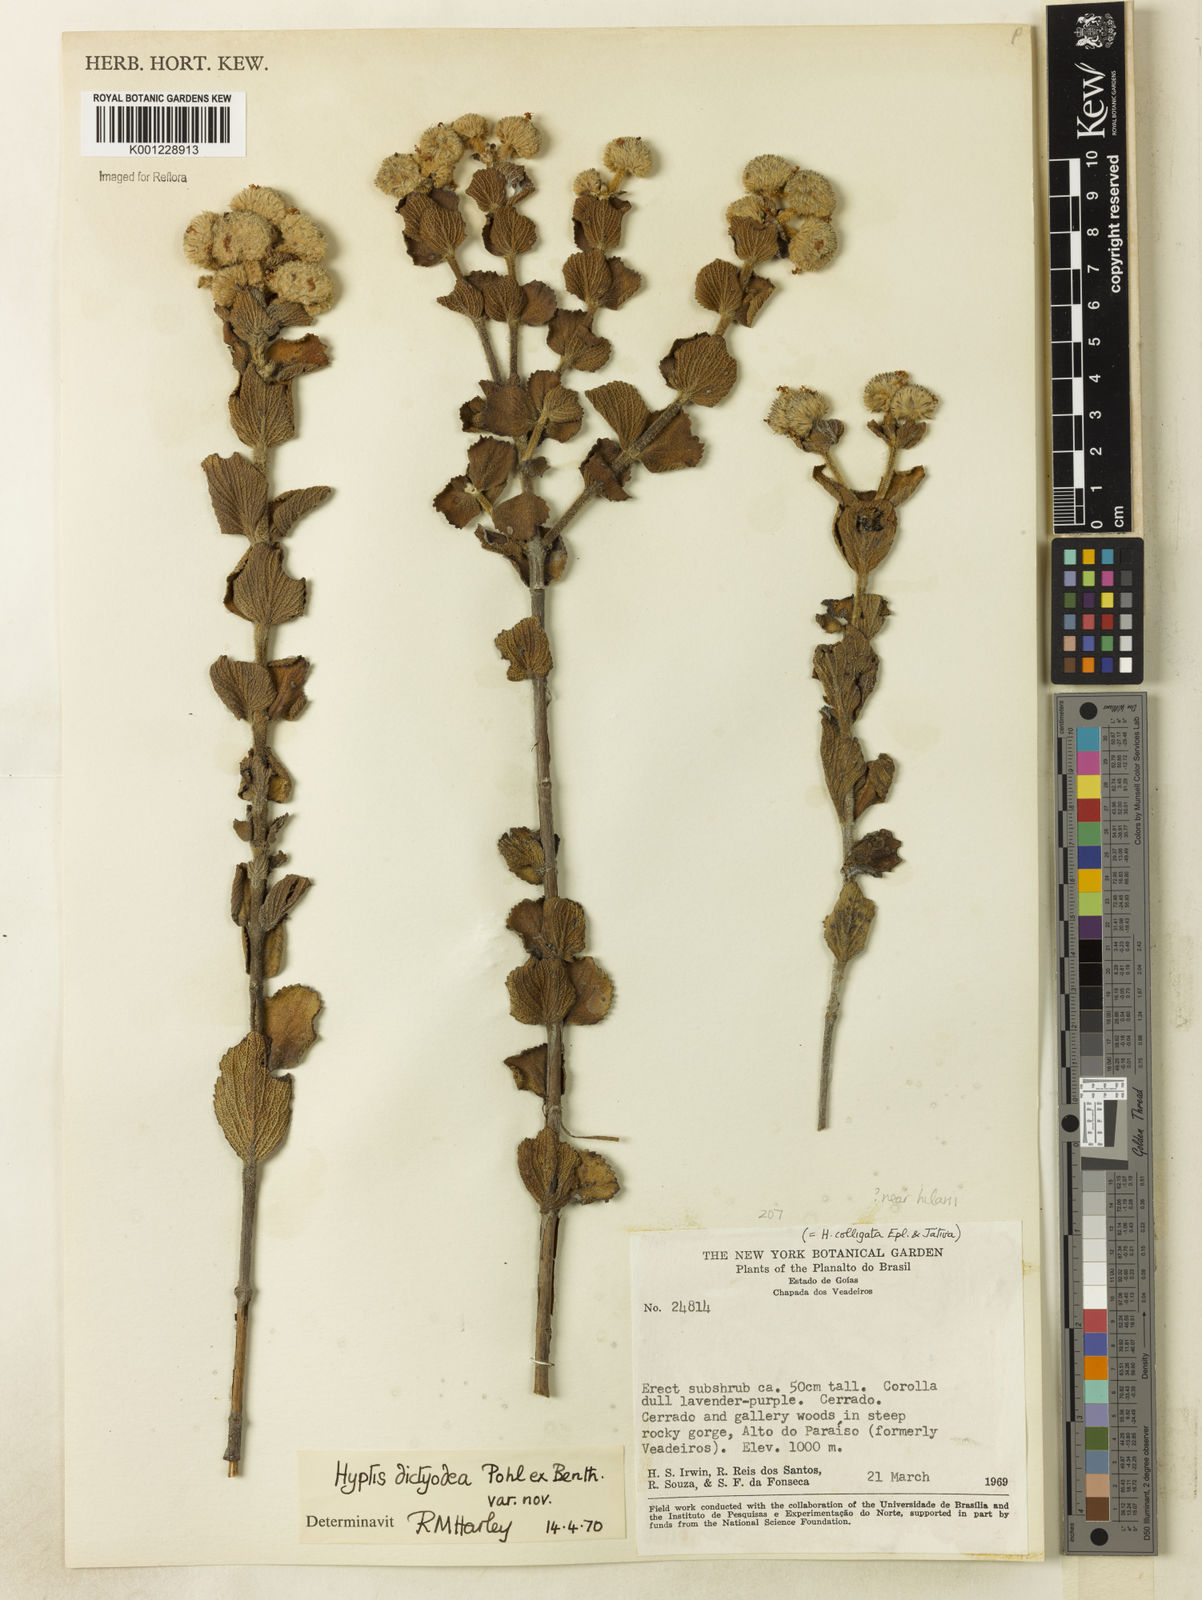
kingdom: Plantae
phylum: Tracheophyta
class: Magnoliopsida
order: Lamiales
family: Lamiaceae
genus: Hyptis
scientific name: Hyptis
